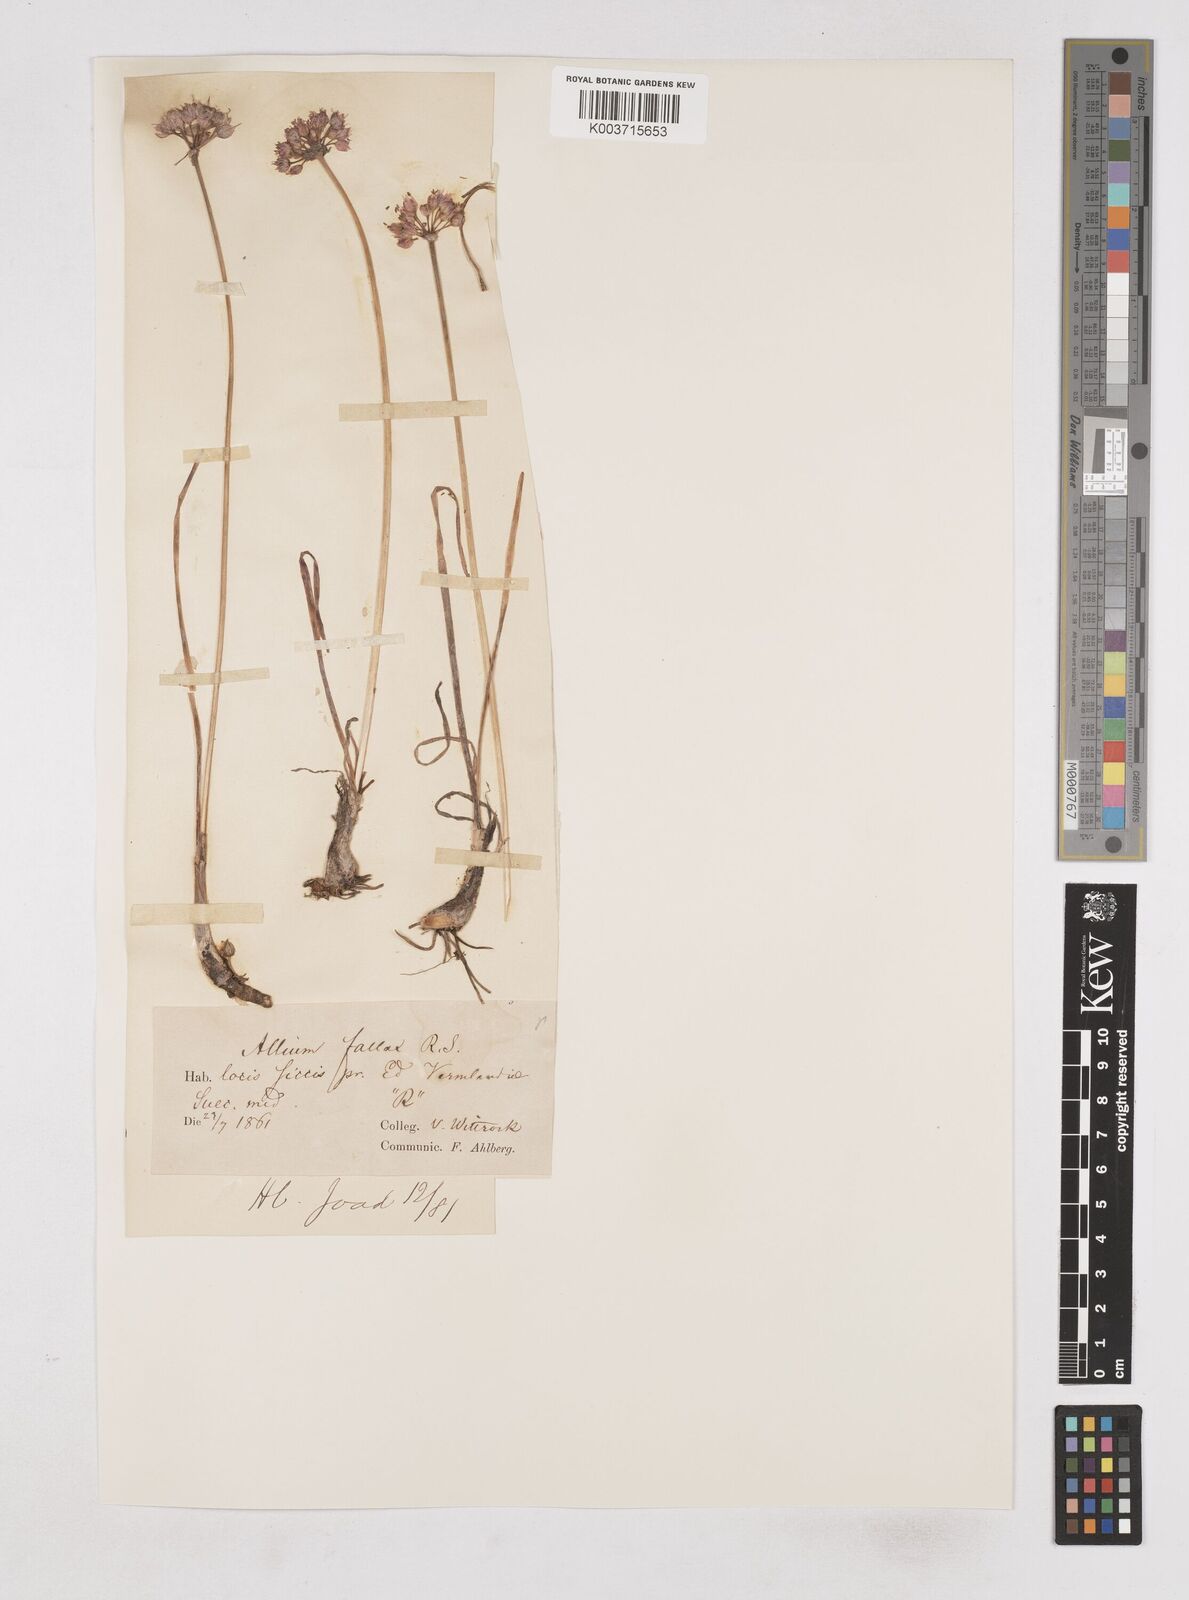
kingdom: Plantae
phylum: Tracheophyta
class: Liliopsida
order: Asparagales
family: Amaryllidaceae
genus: Allium
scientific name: Allium
